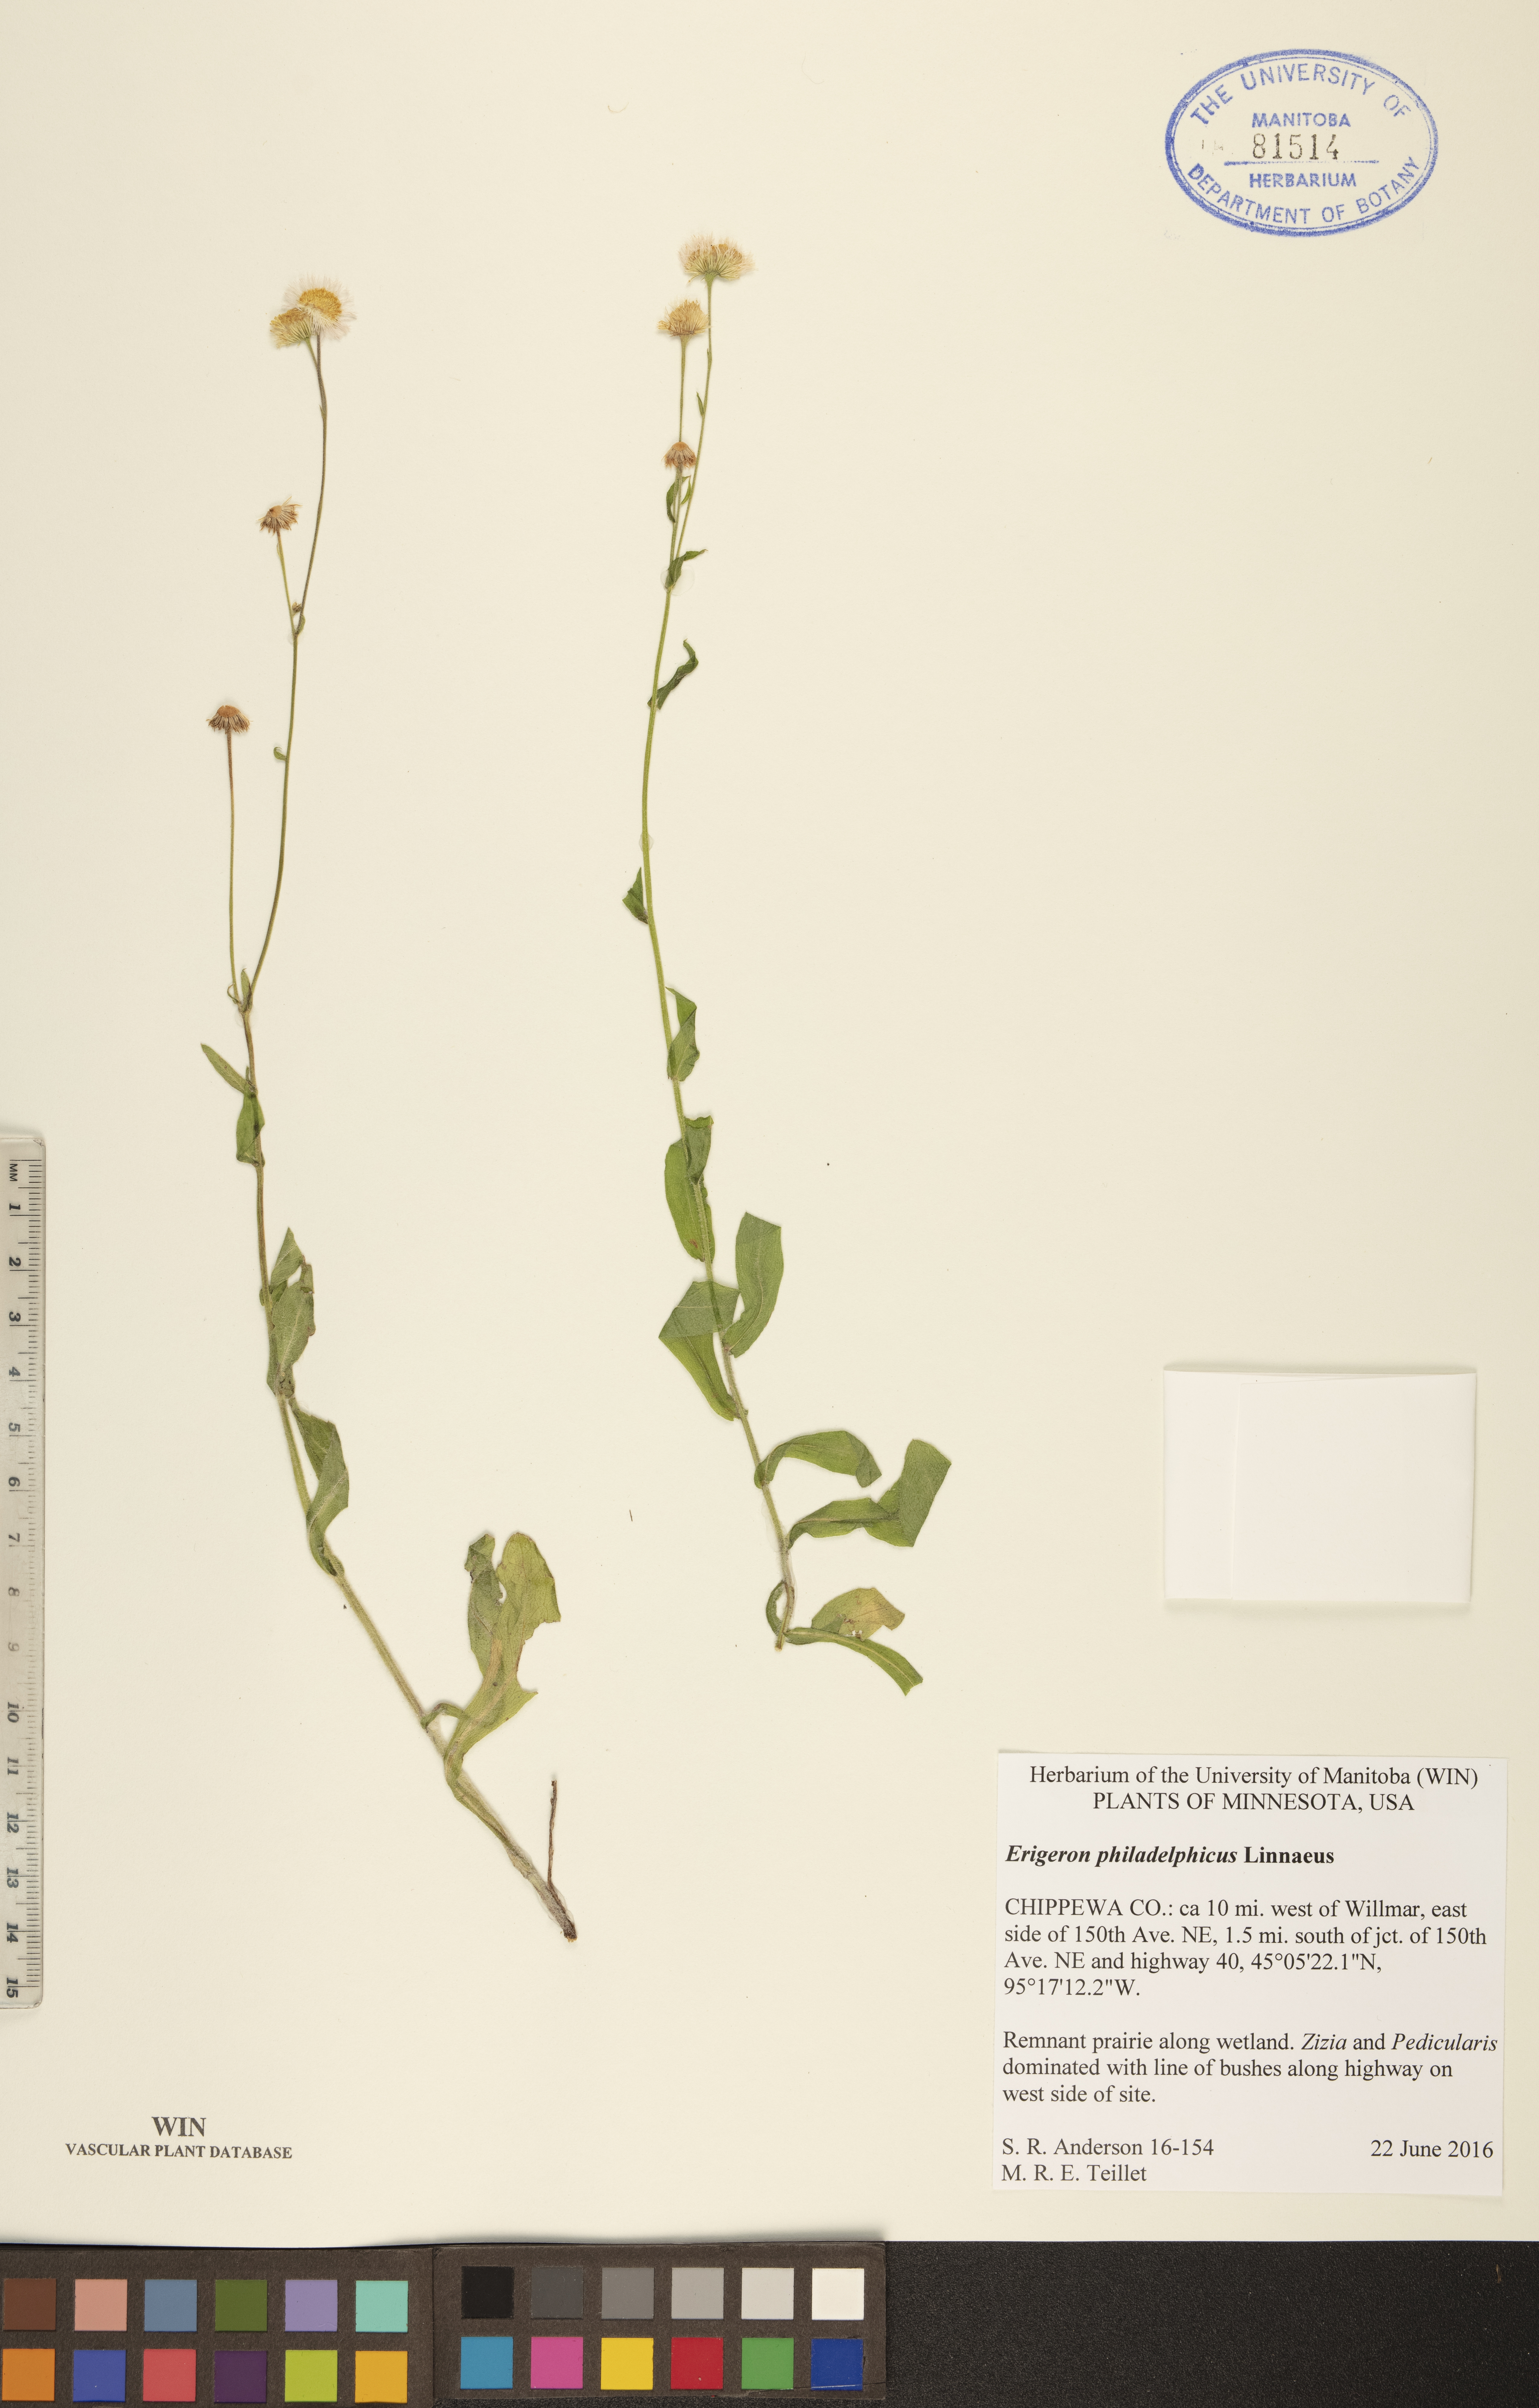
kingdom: Plantae
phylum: Tracheophyta
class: Magnoliopsida
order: Asterales
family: Asteraceae
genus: Erigeron
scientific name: Erigeron philadelphicus
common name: Robin's-plantain
